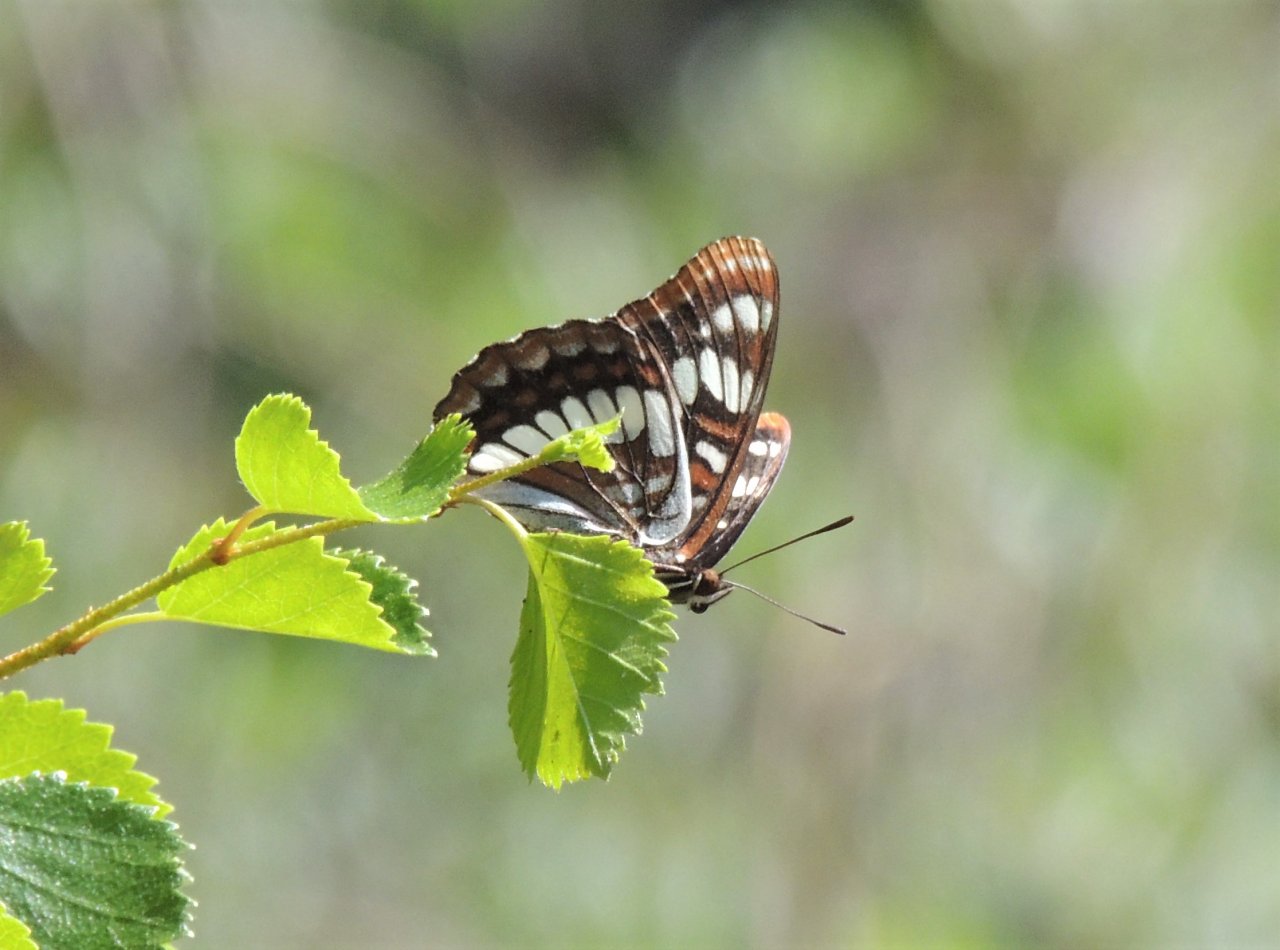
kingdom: Animalia
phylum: Arthropoda
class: Insecta
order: Lepidoptera
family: Nymphalidae
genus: Limenitis
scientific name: Limenitis lorquini
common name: Lorquin's Admiral
